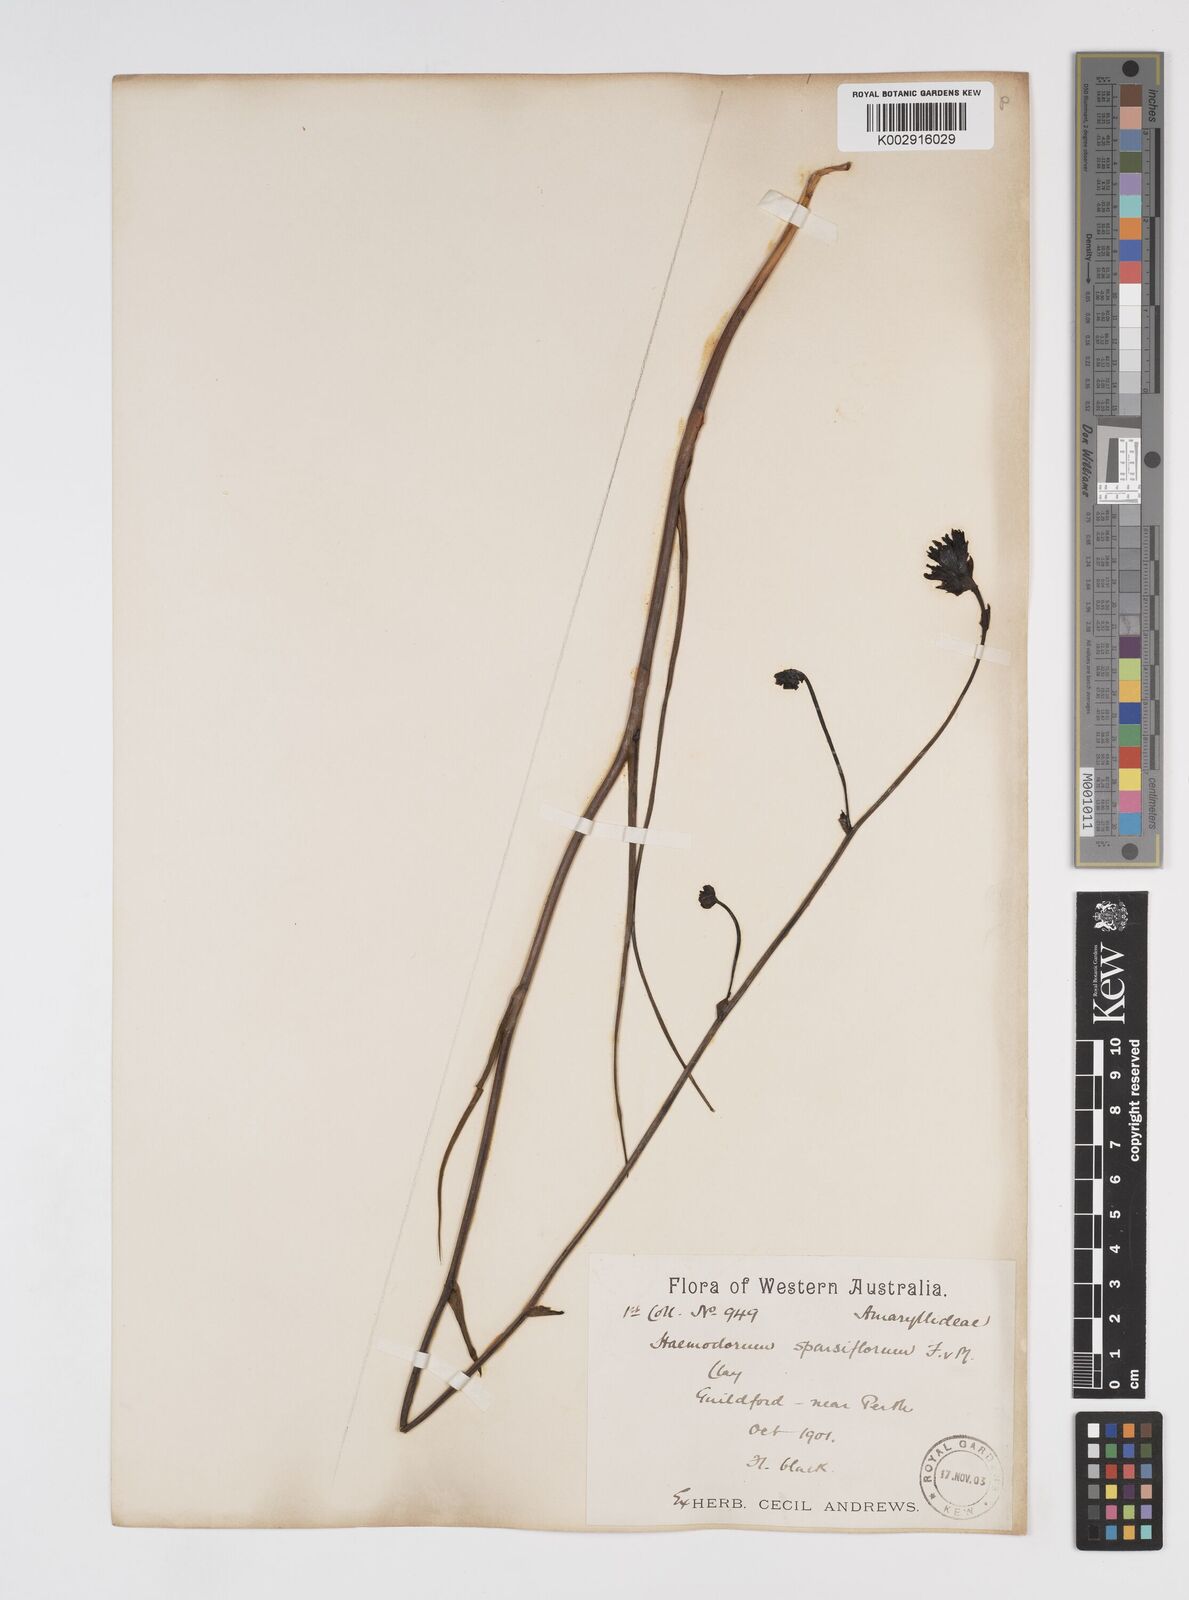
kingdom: Plantae
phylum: Tracheophyta
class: Liliopsida
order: Commelinales
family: Haemodoraceae
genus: Haemodorum
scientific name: Haemodorum sparsiflorum
